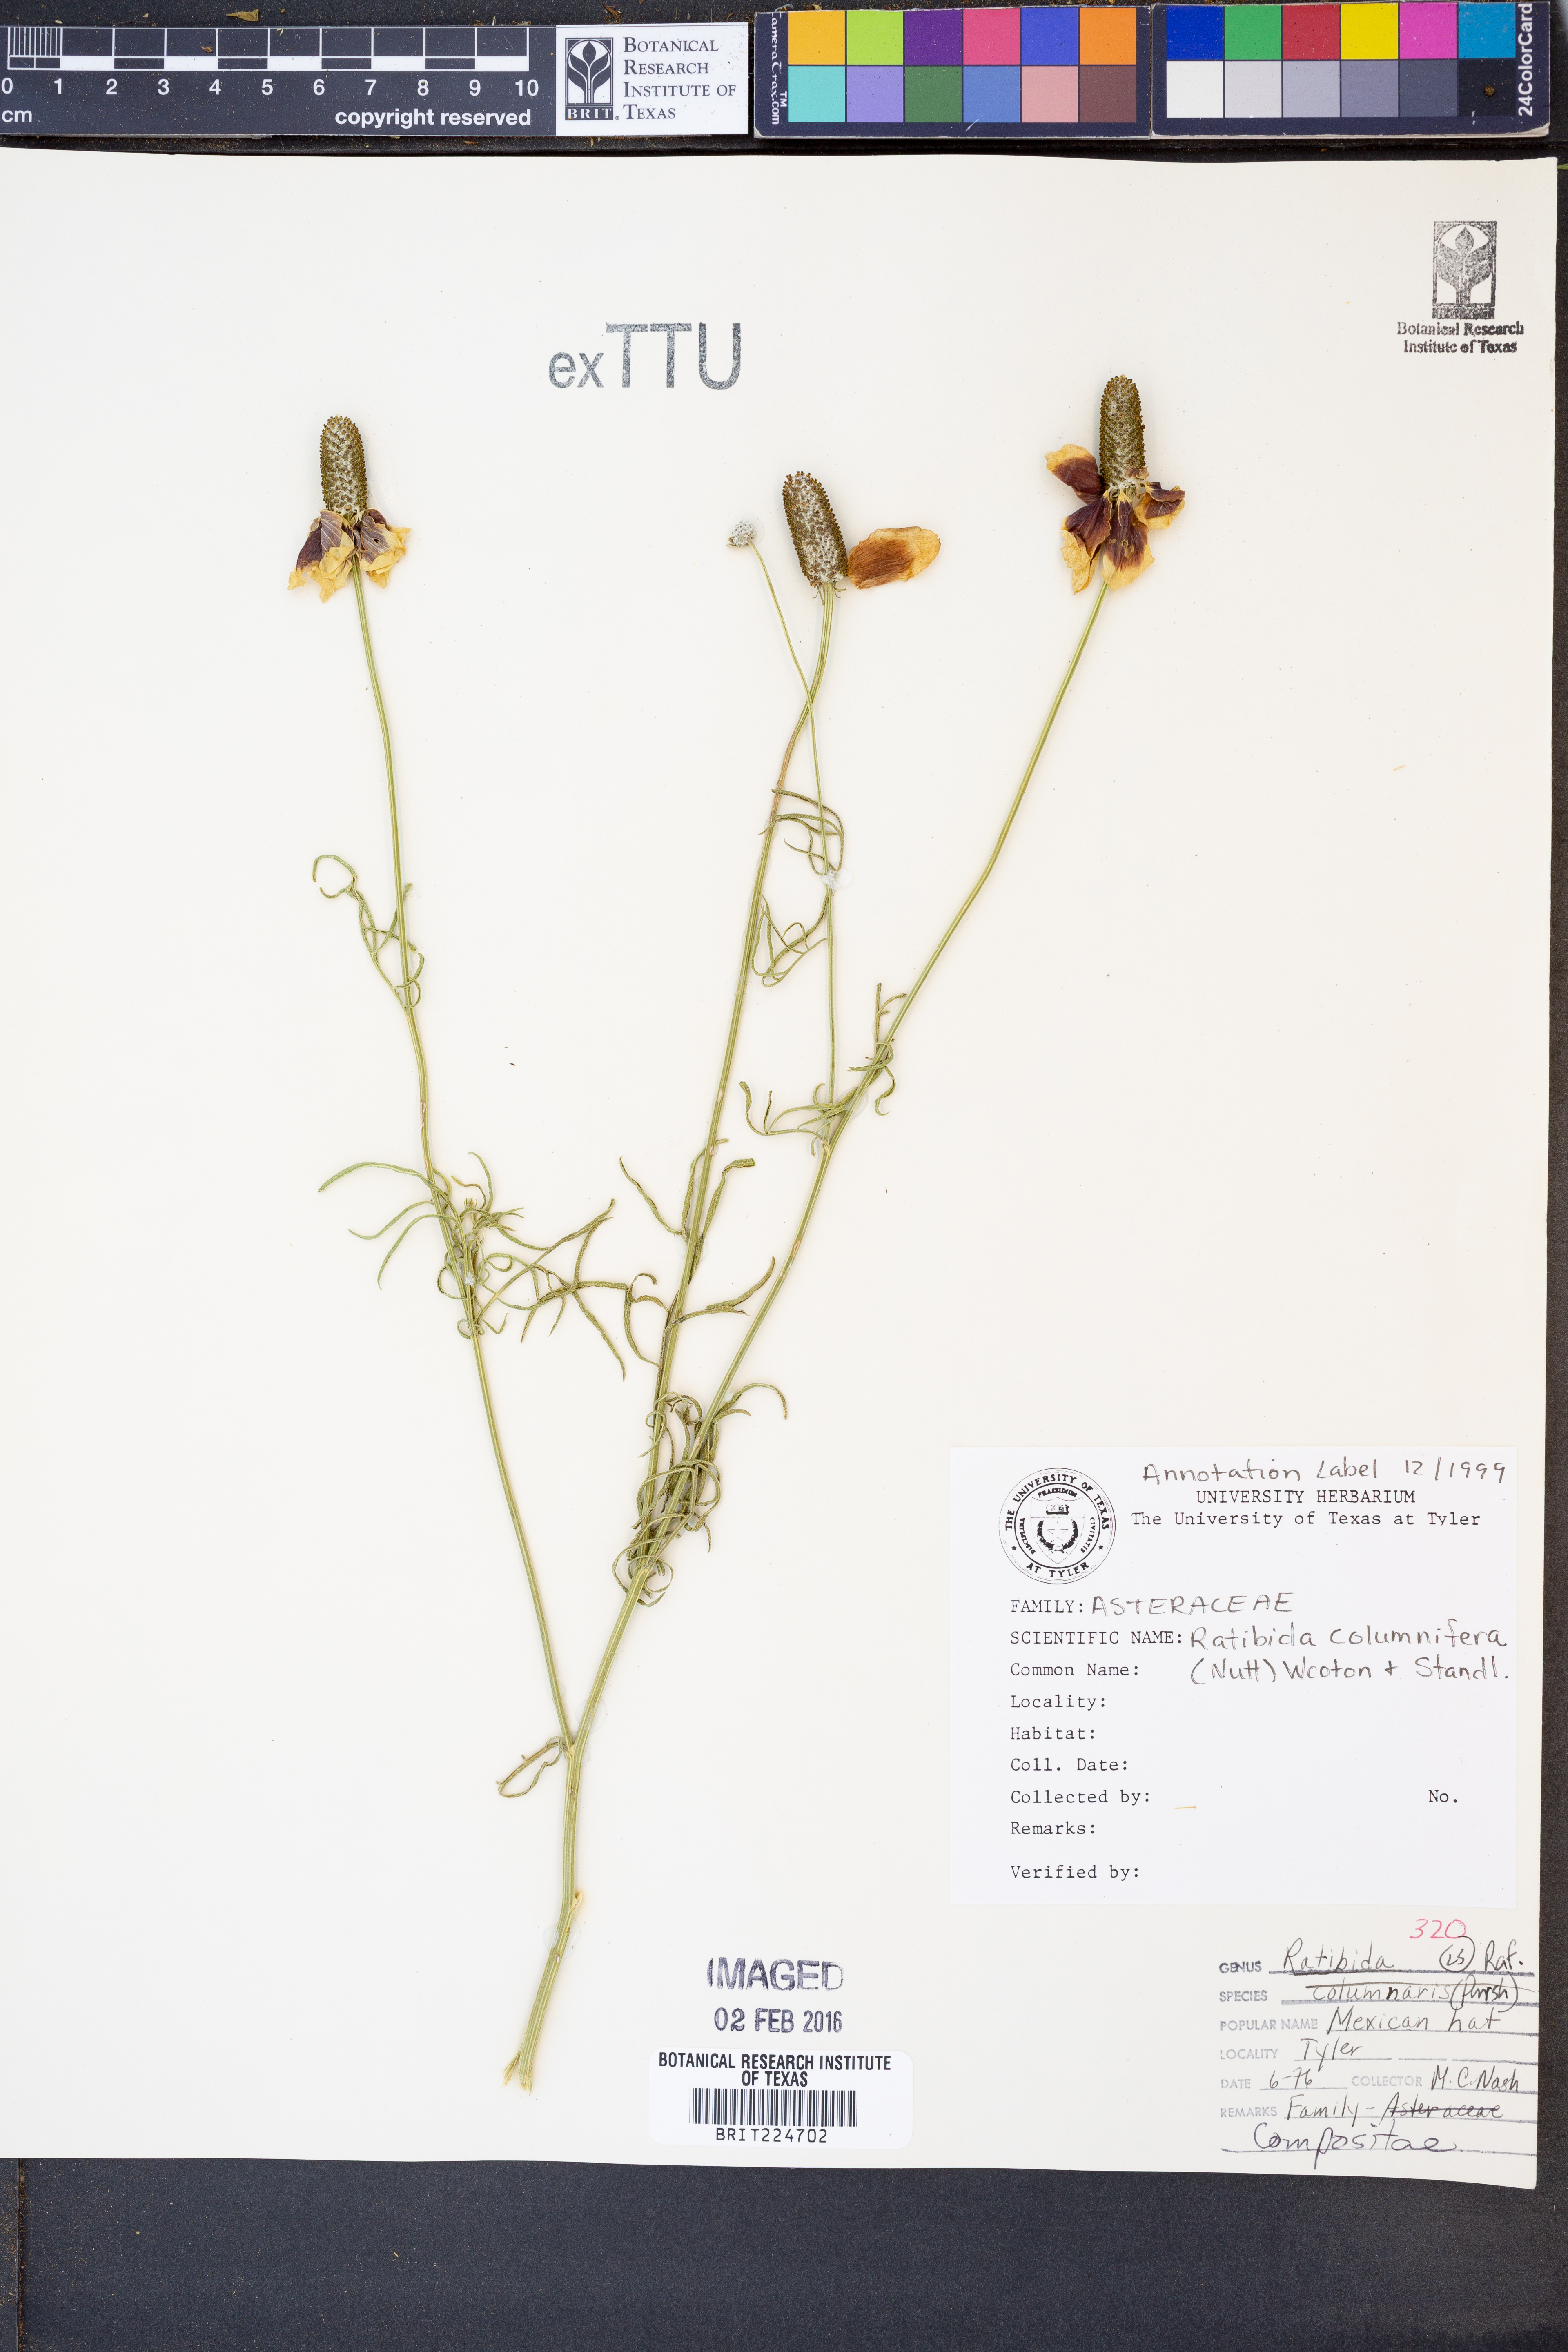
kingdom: Plantae
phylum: Tracheophyta
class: Magnoliopsida
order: Asterales
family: Asteraceae
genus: Ratibida
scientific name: Ratibida columnifera
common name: Prairie coneflower
